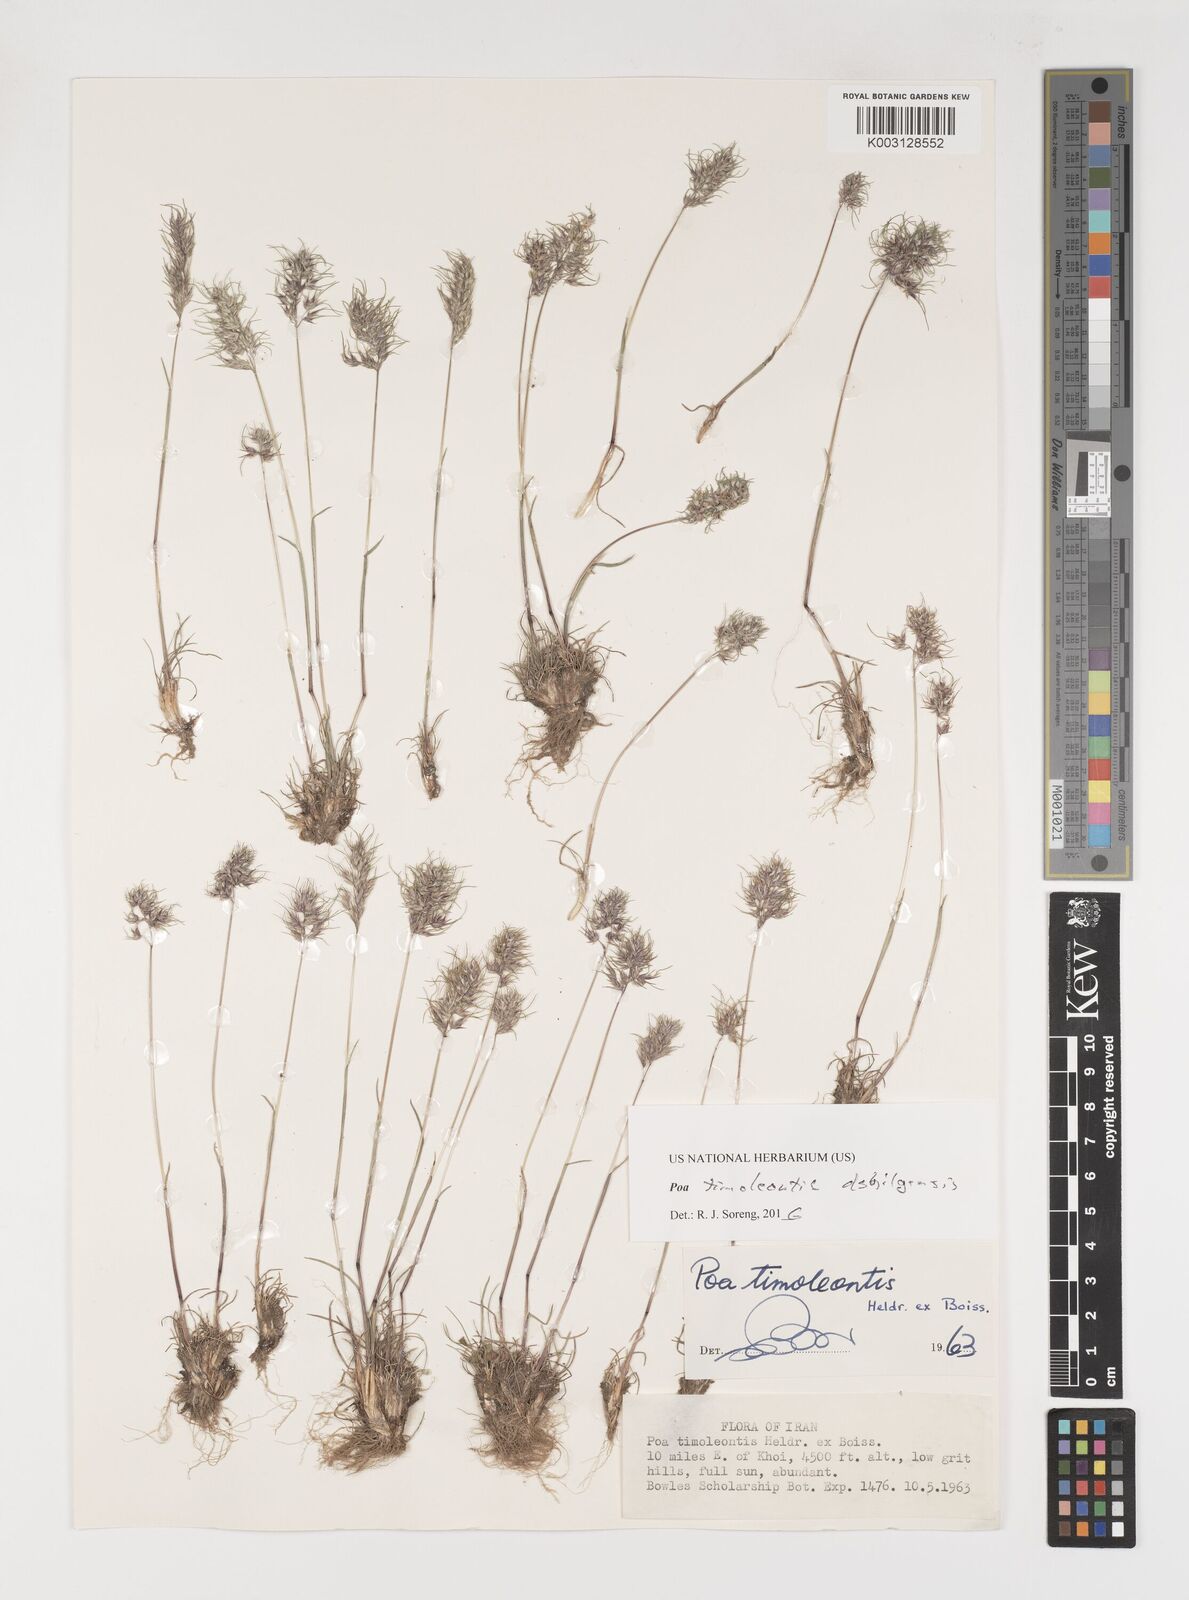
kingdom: Plantae
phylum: Tracheophyta
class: Liliopsida
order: Poales
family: Poaceae
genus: Poa
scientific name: Poa timoleontis
